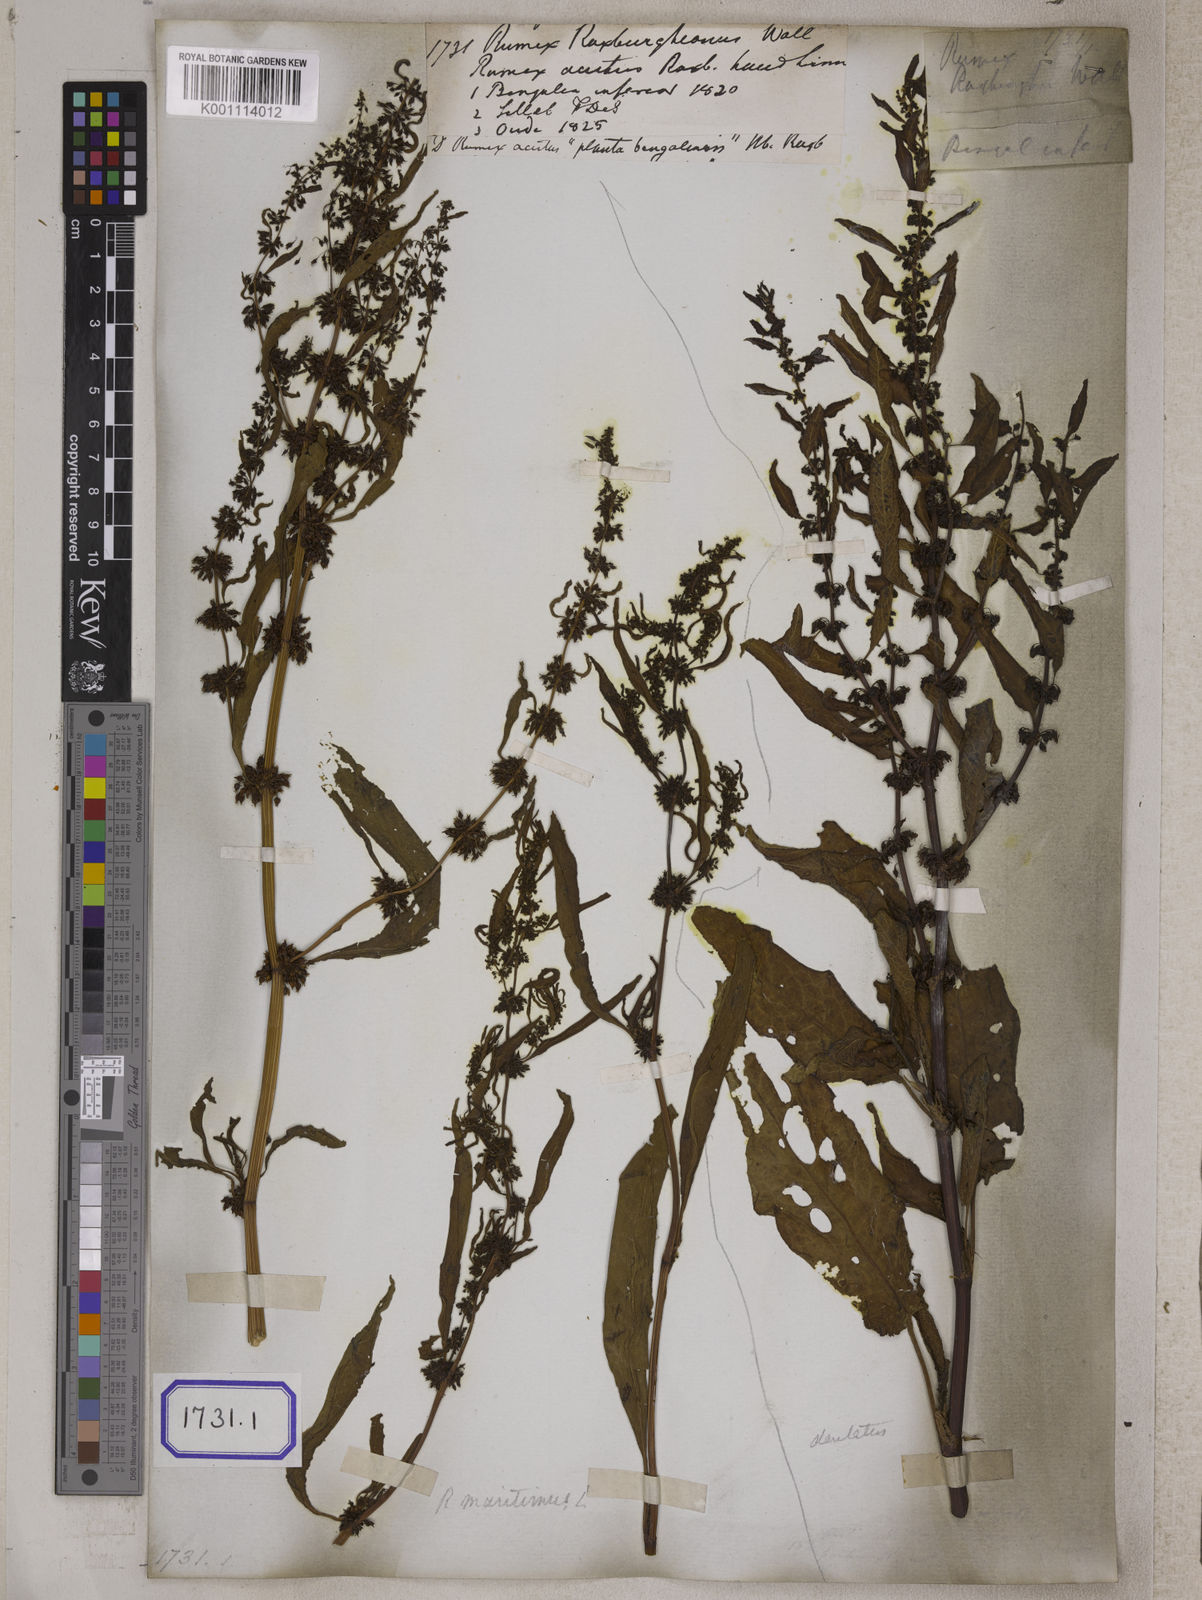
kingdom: Plantae
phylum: Tracheophyta
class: Magnoliopsida
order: Caryophyllales
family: Polygonaceae
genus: Rumex
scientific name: Rumex maritimus
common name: Golden dock
